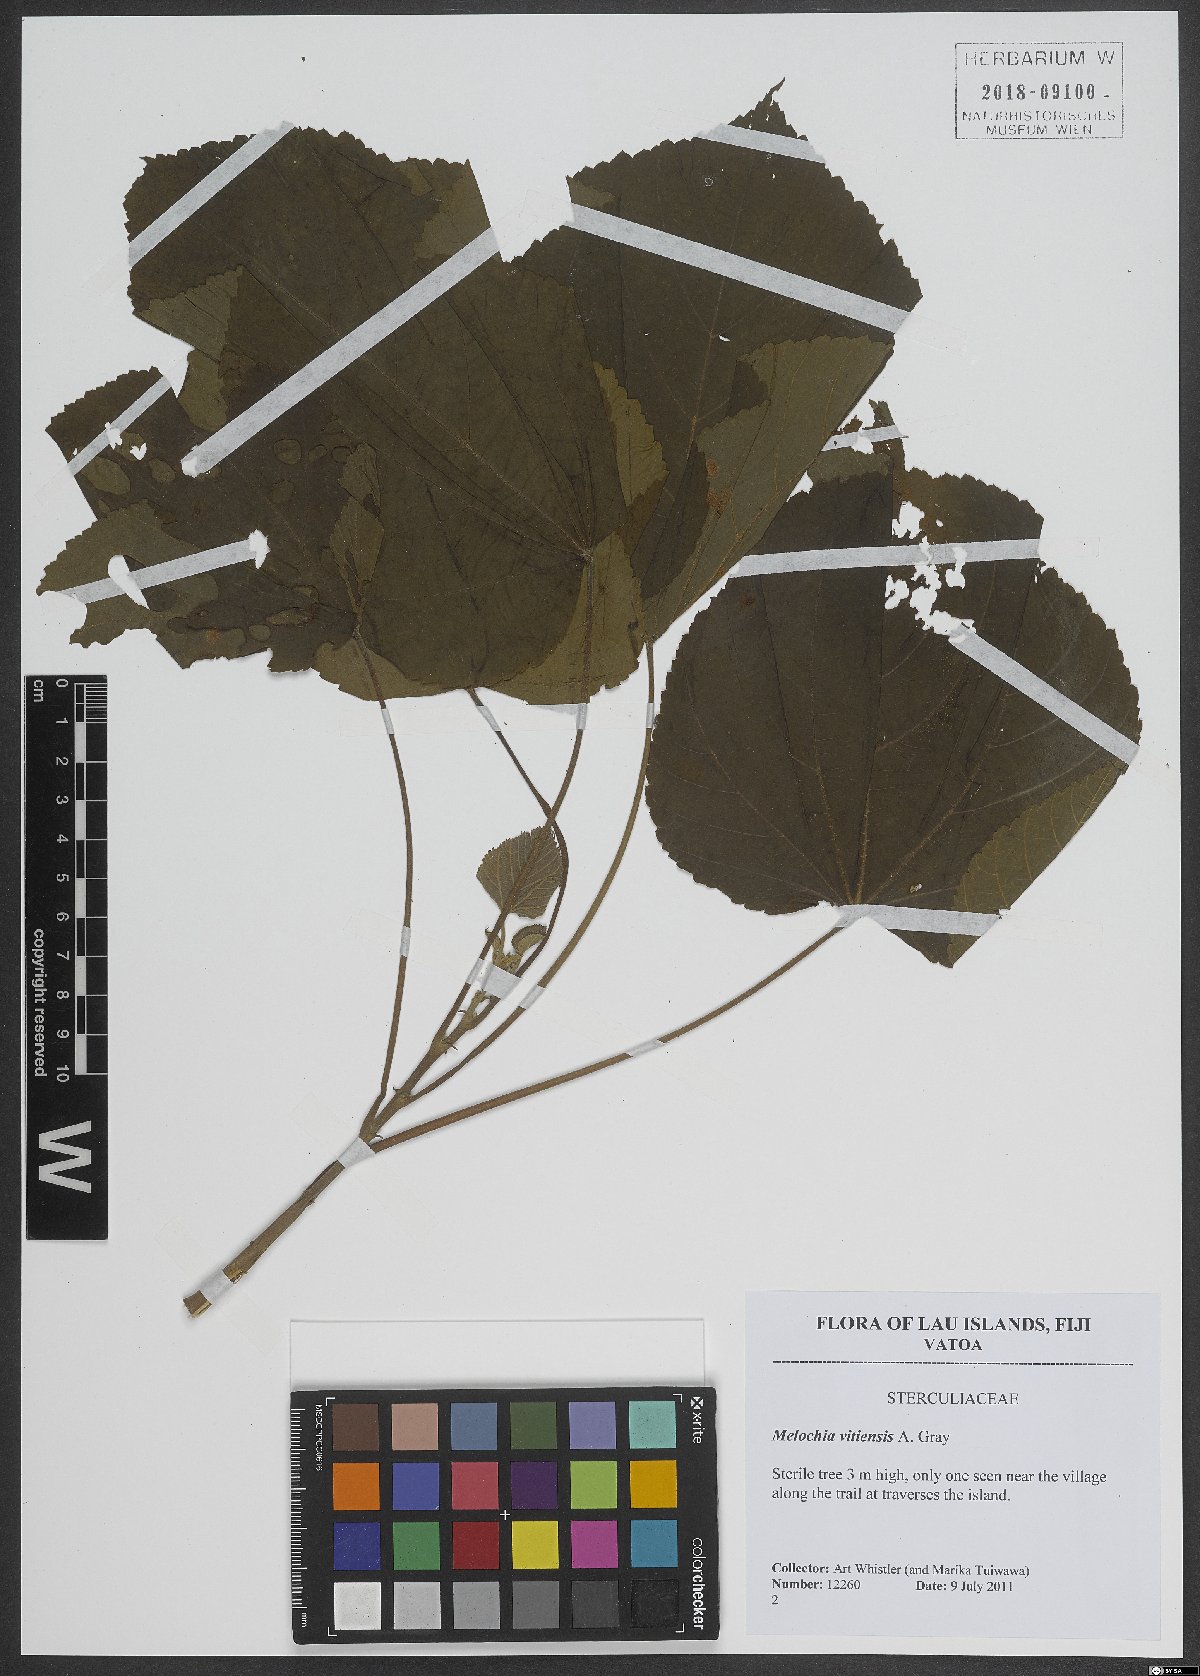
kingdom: Plantae
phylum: Tracheophyta
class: Magnoliopsida
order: Malvales
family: Malvaceae
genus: Melochia
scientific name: Melochia odorata
